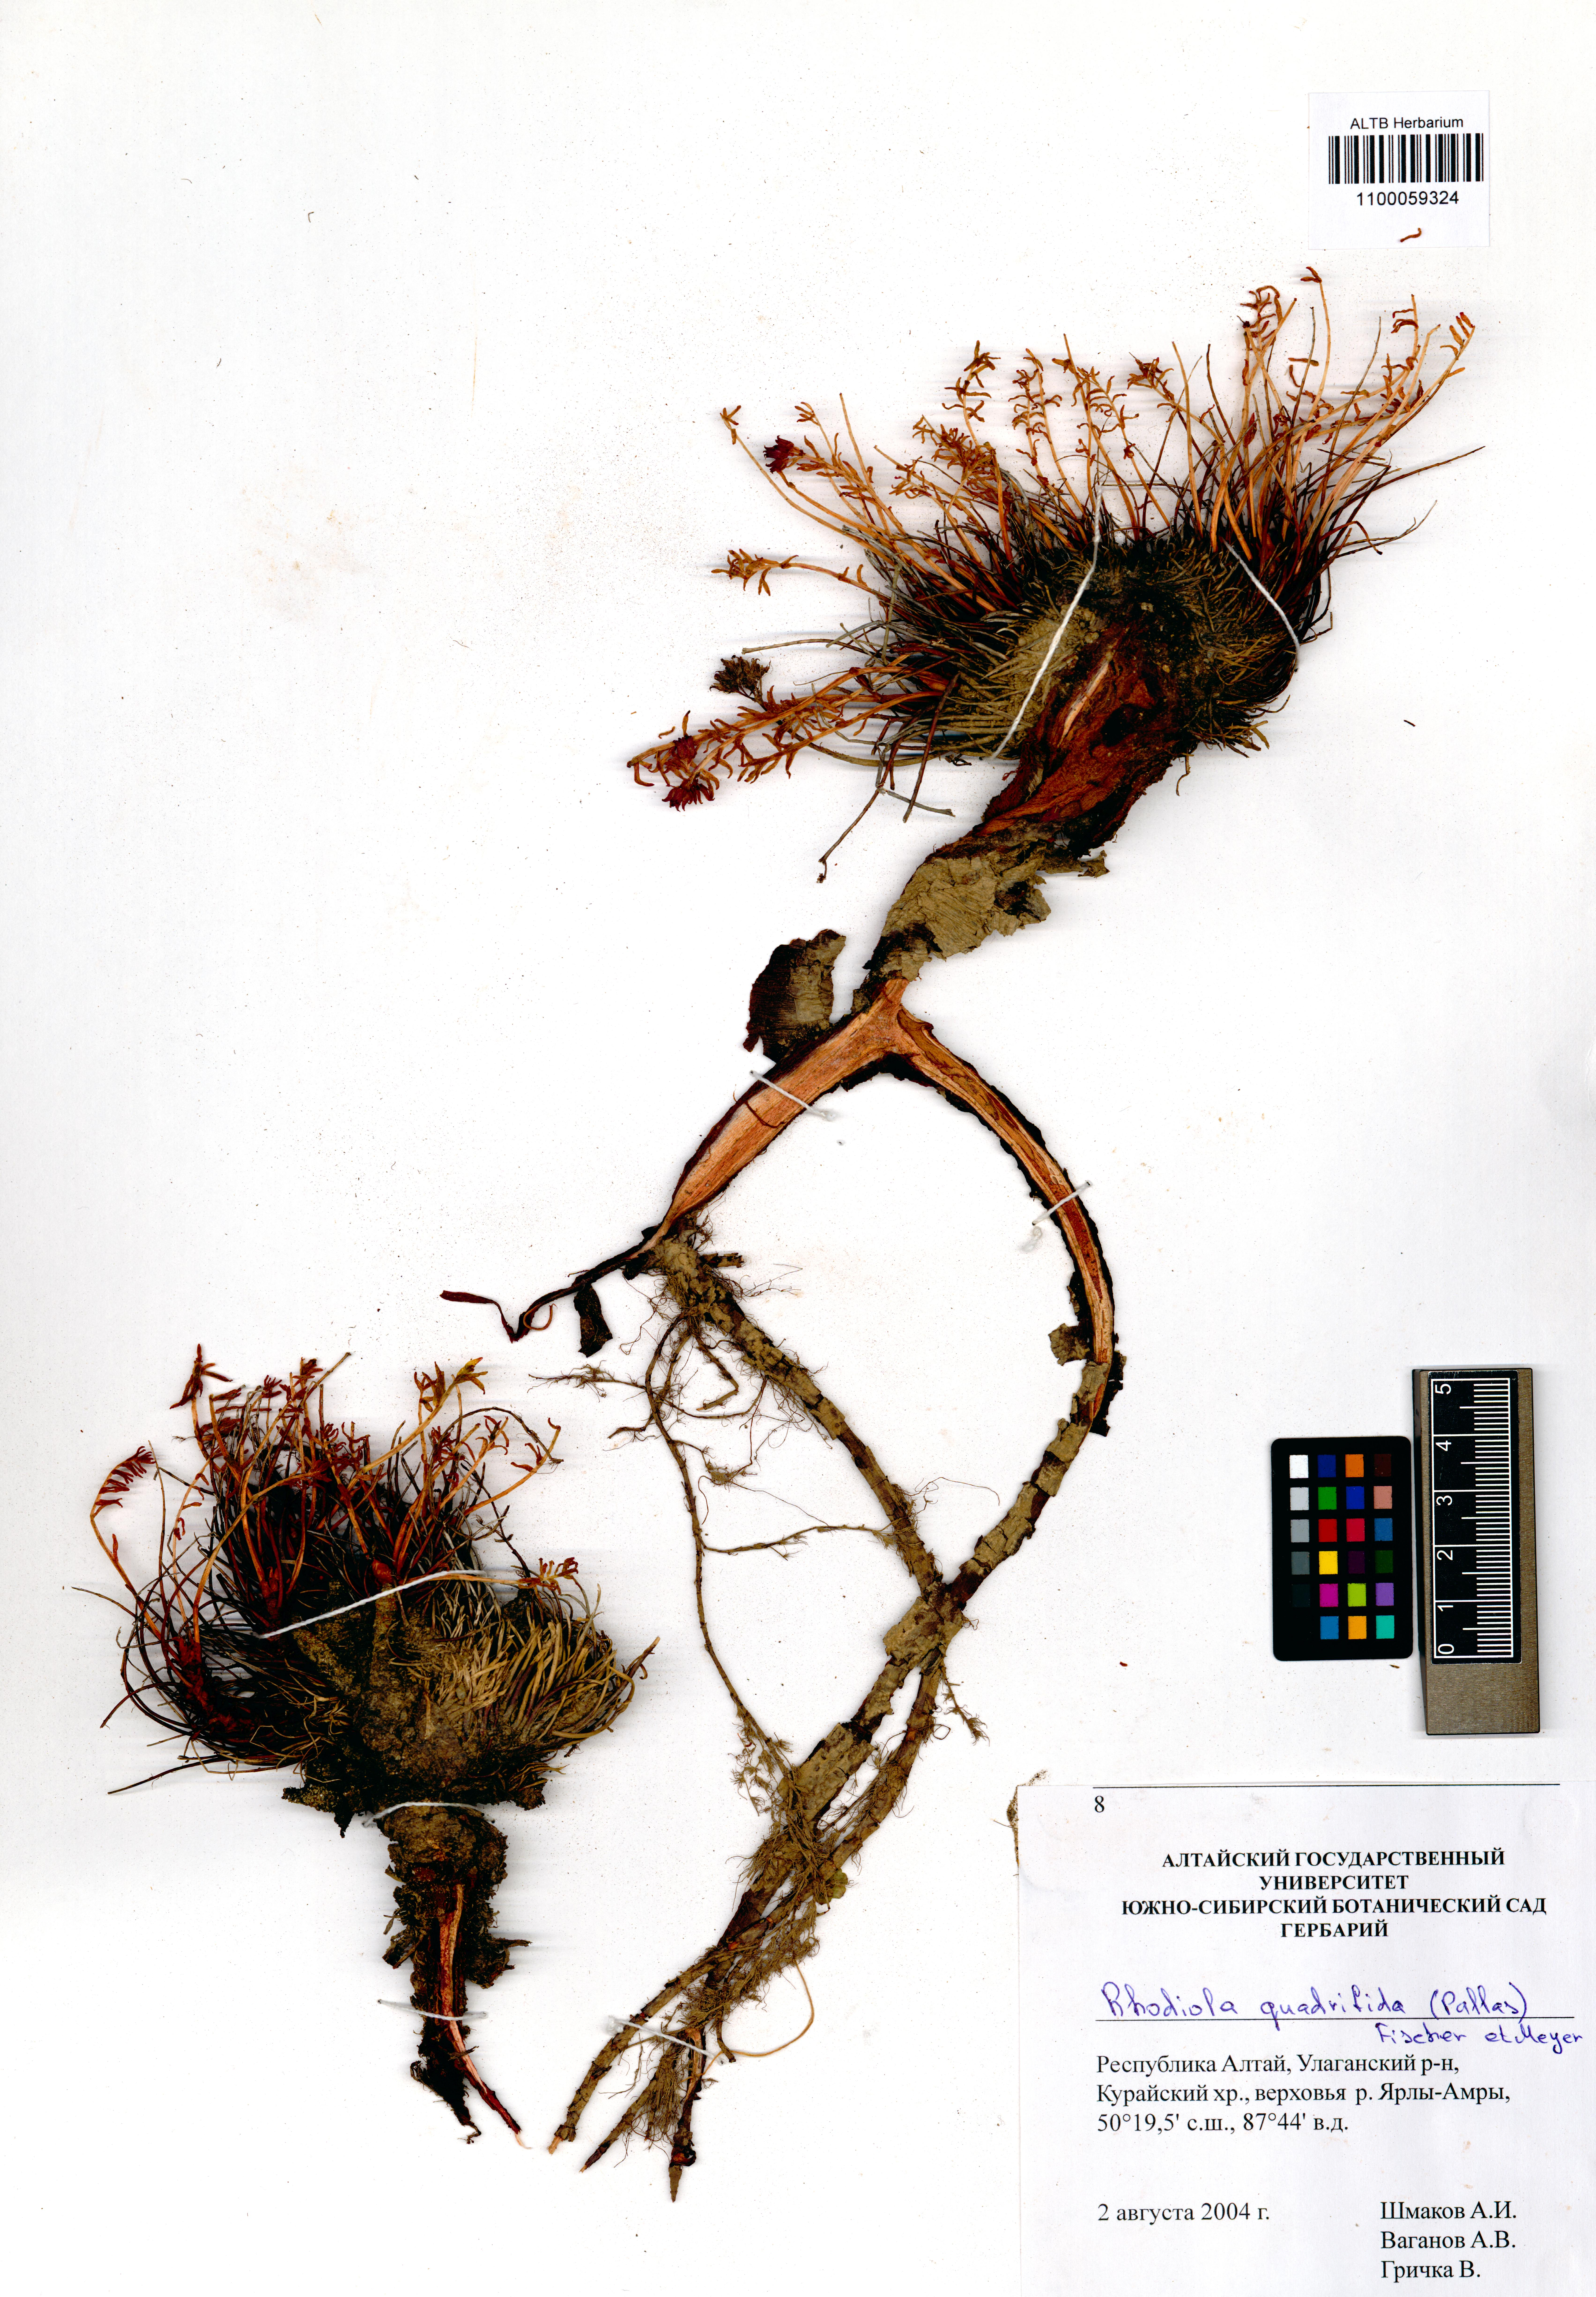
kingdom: Plantae
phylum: Tracheophyta
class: Magnoliopsida
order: Saxifragales
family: Crassulaceae
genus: Rhodiola
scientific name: Rhodiola quadrifida
